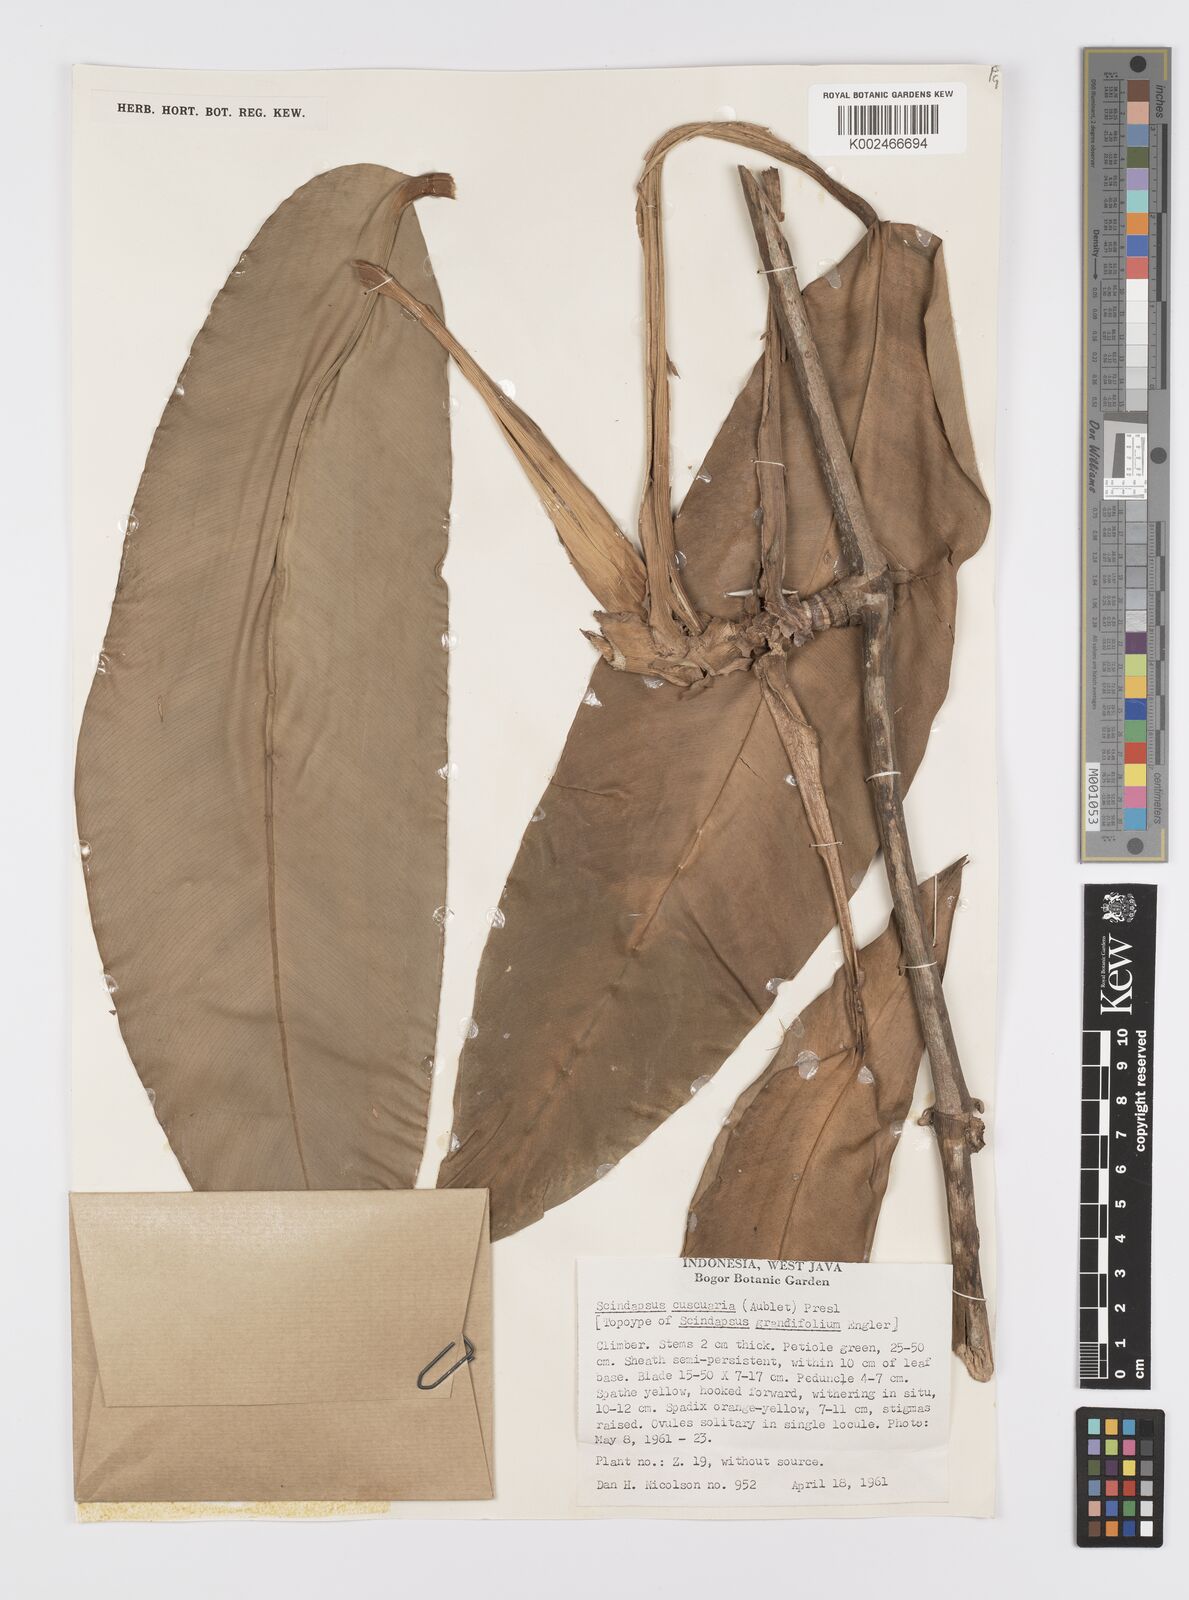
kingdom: Plantae
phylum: Tracheophyta
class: Liliopsida
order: Alismatales
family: Araceae
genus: Scindapsus
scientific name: Scindapsus cuscuaria
